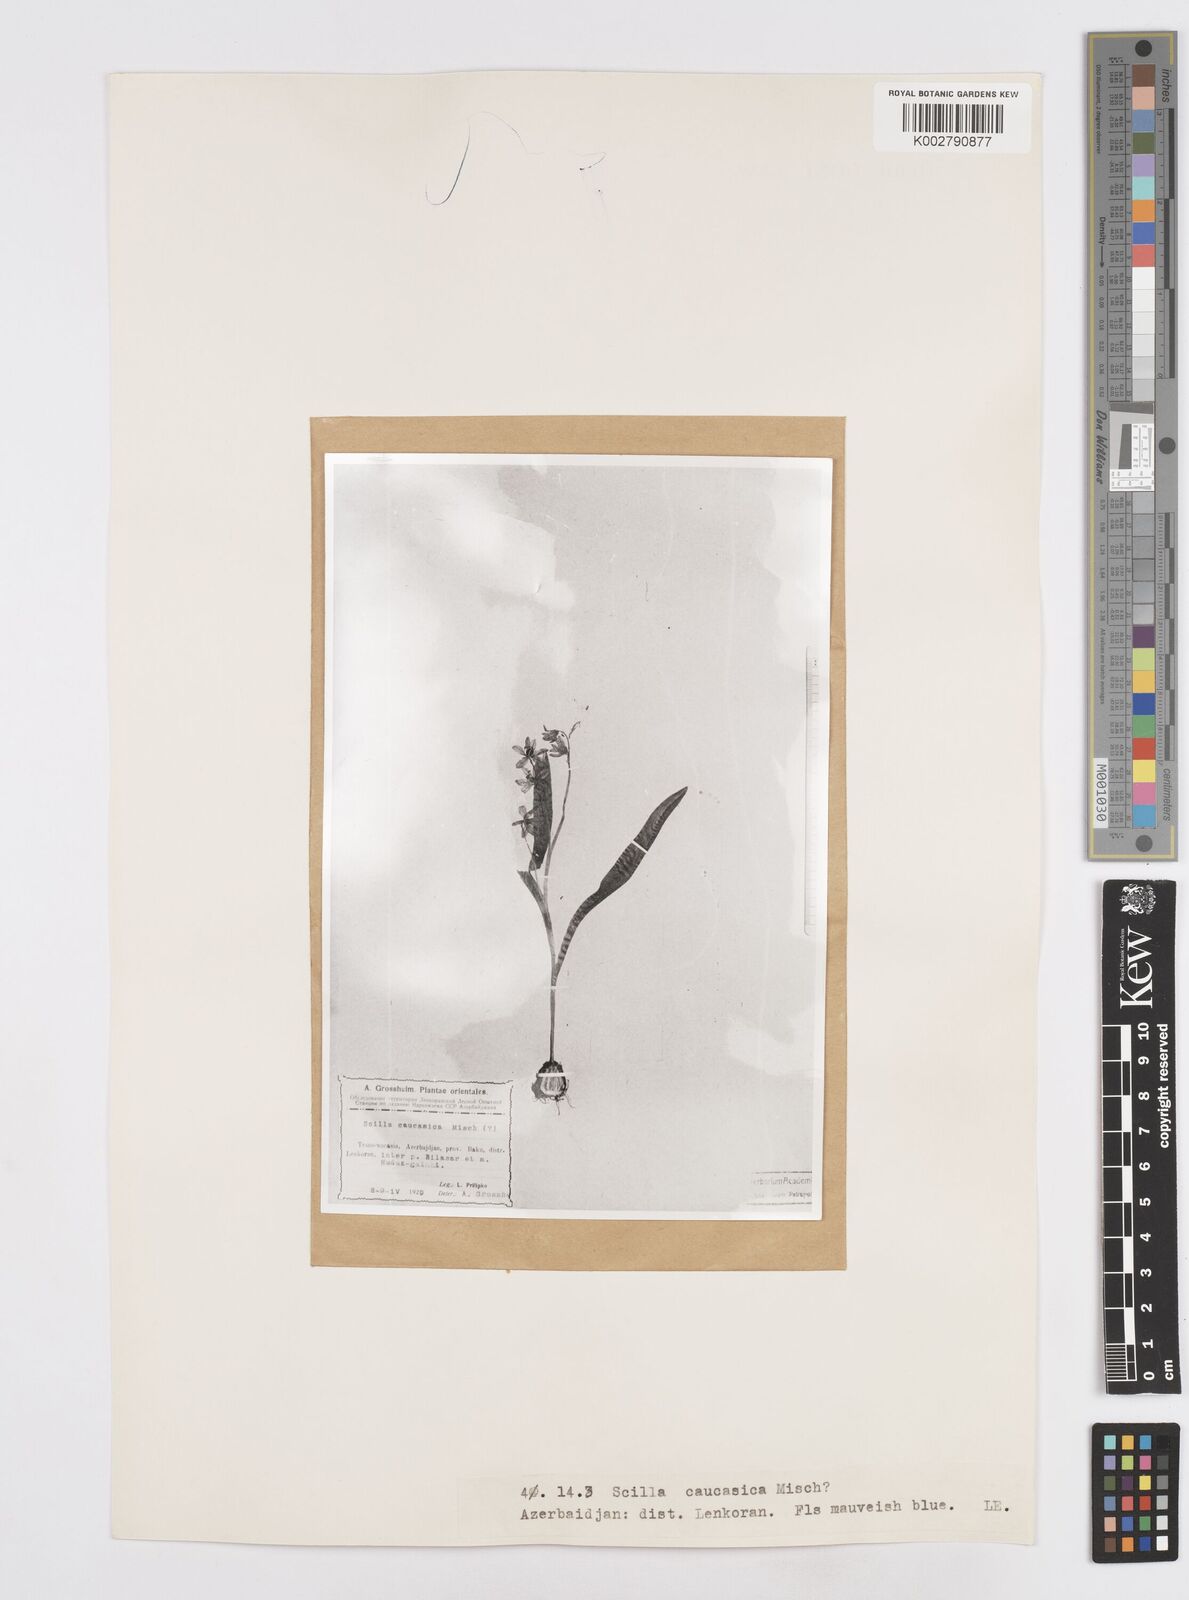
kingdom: Plantae
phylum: Tracheophyta
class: Liliopsida
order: Asparagales
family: Asparagaceae
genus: Scilla
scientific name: Scilla siberica
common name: Siberian squill
